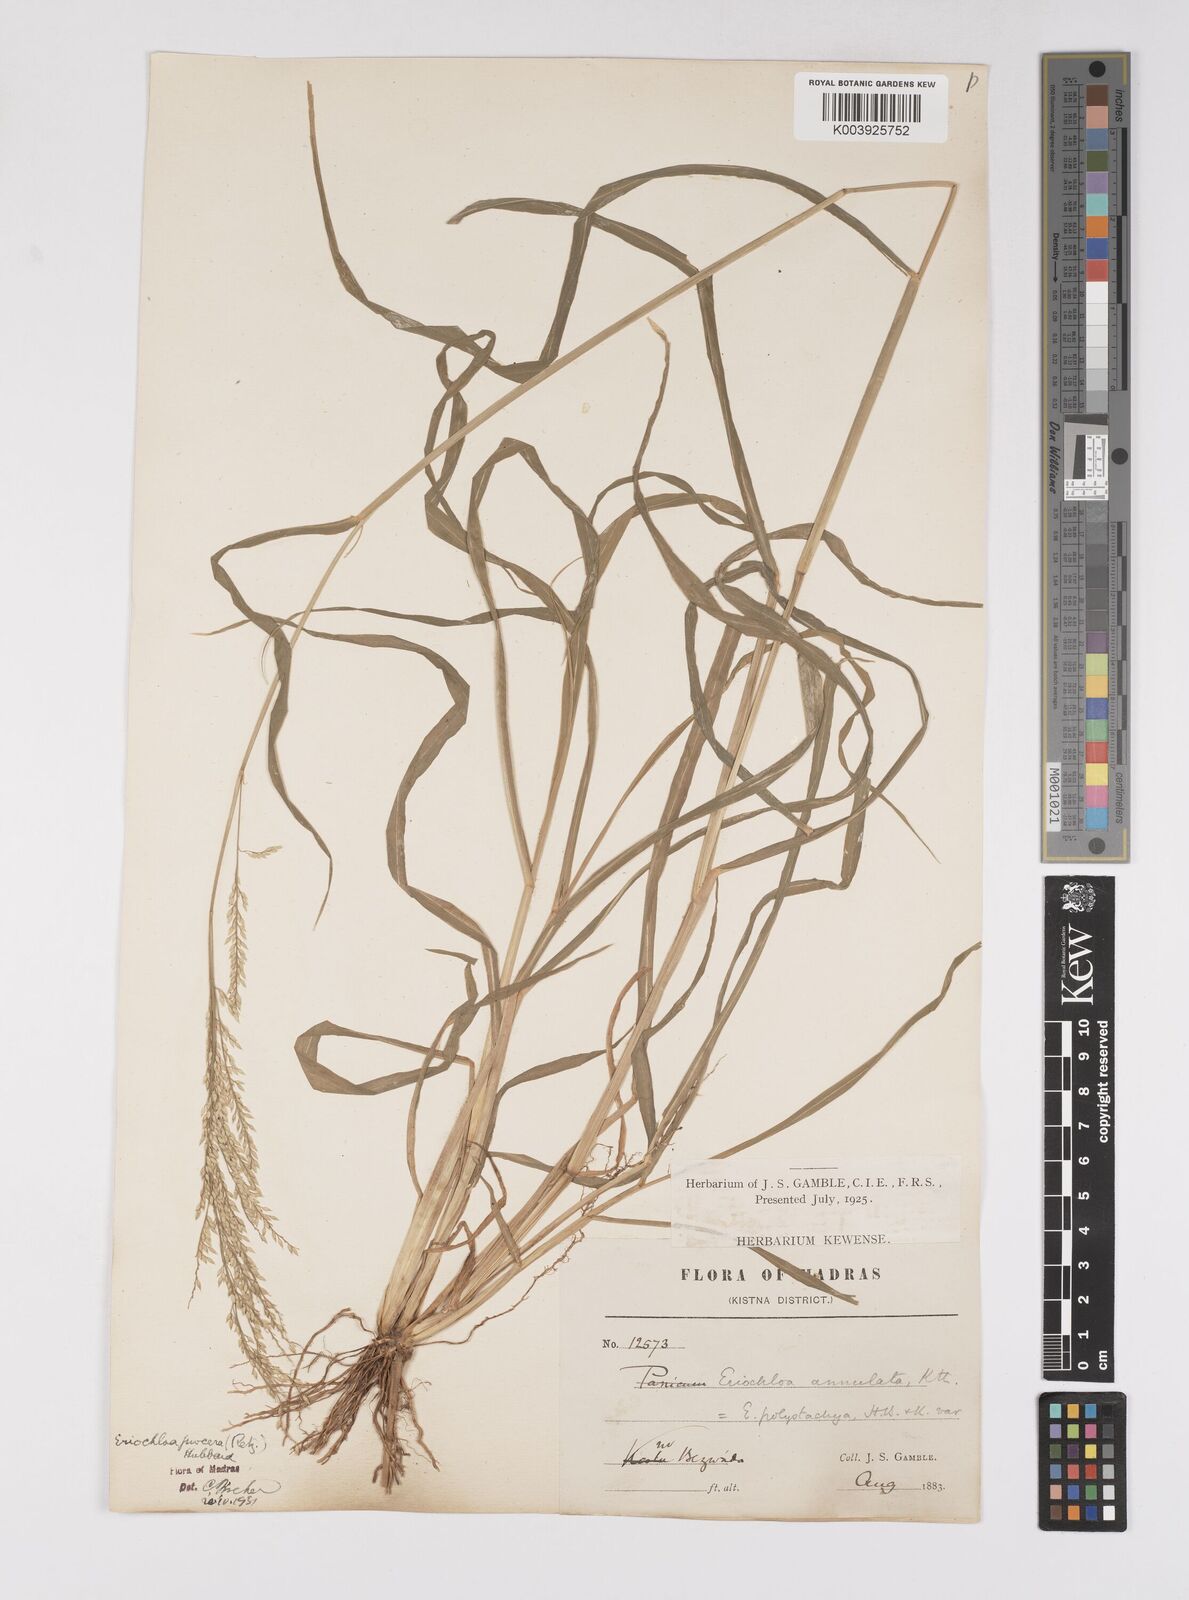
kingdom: Plantae
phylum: Tracheophyta
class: Liliopsida
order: Poales
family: Poaceae
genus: Eriochloa
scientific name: Eriochloa procera
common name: Spring grass
